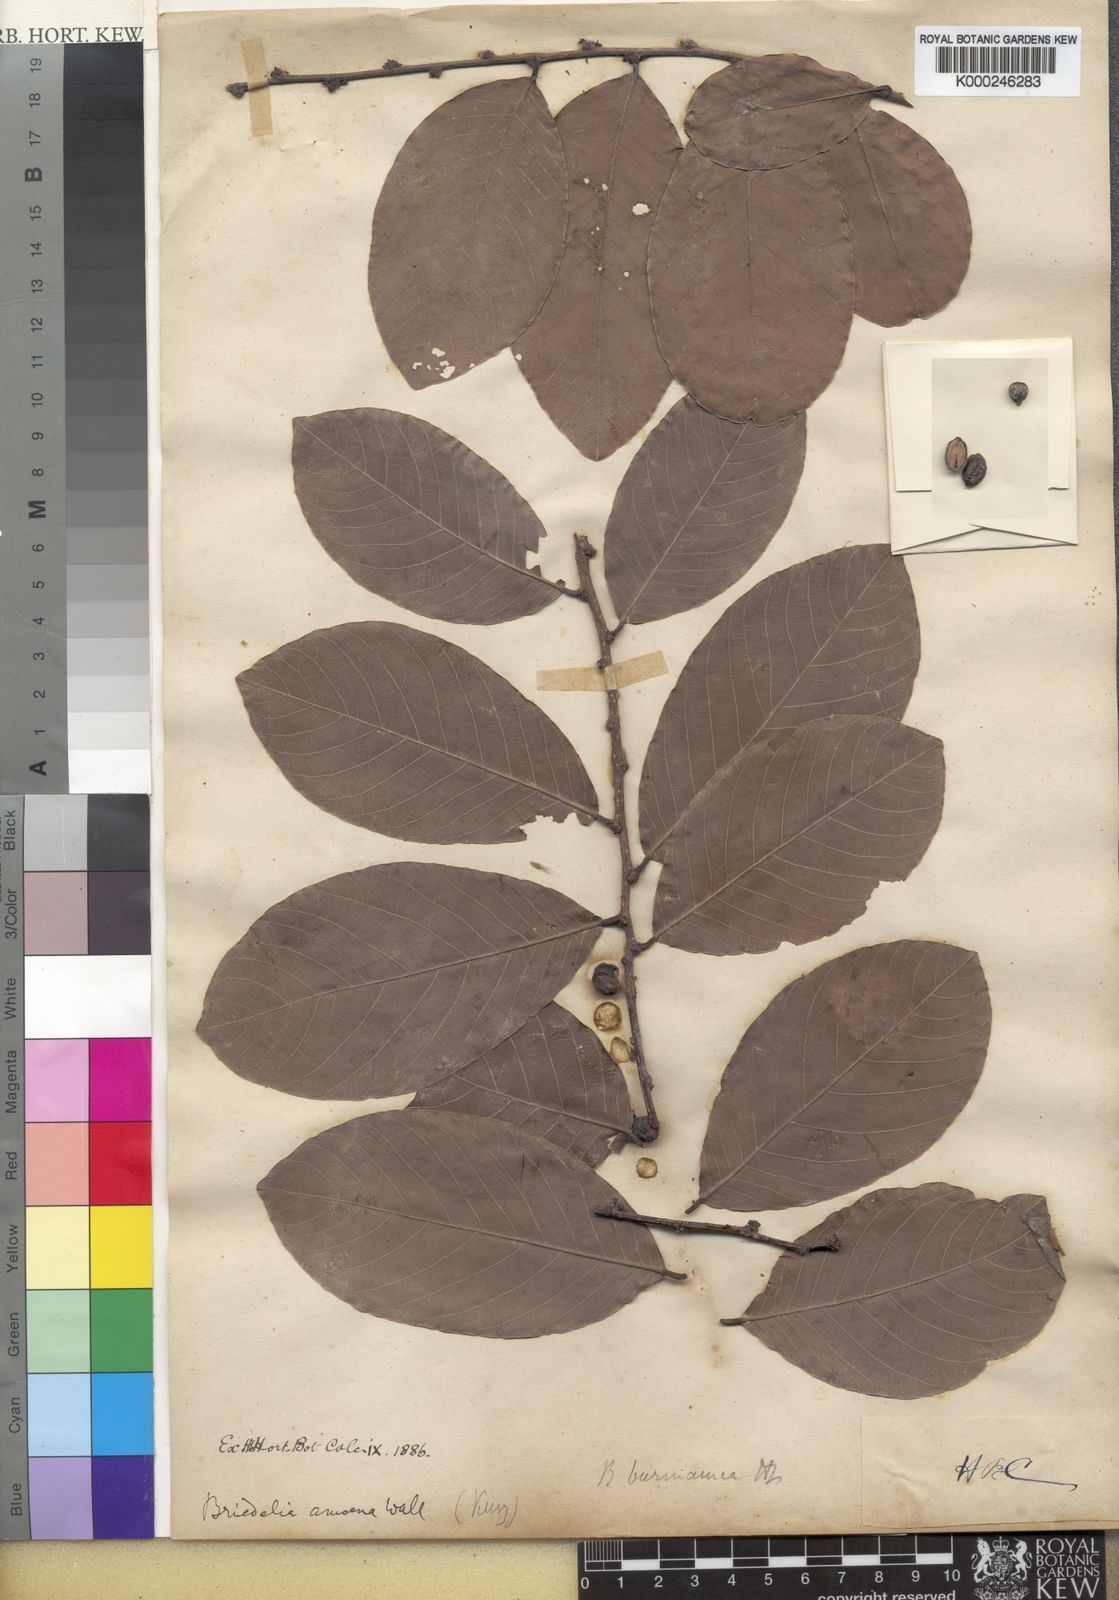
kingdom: Plantae
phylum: Tracheophyta
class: Magnoliopsida
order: Malpighiales
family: Phyllanthaceae
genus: Bridelia
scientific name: Bridelia ovata
